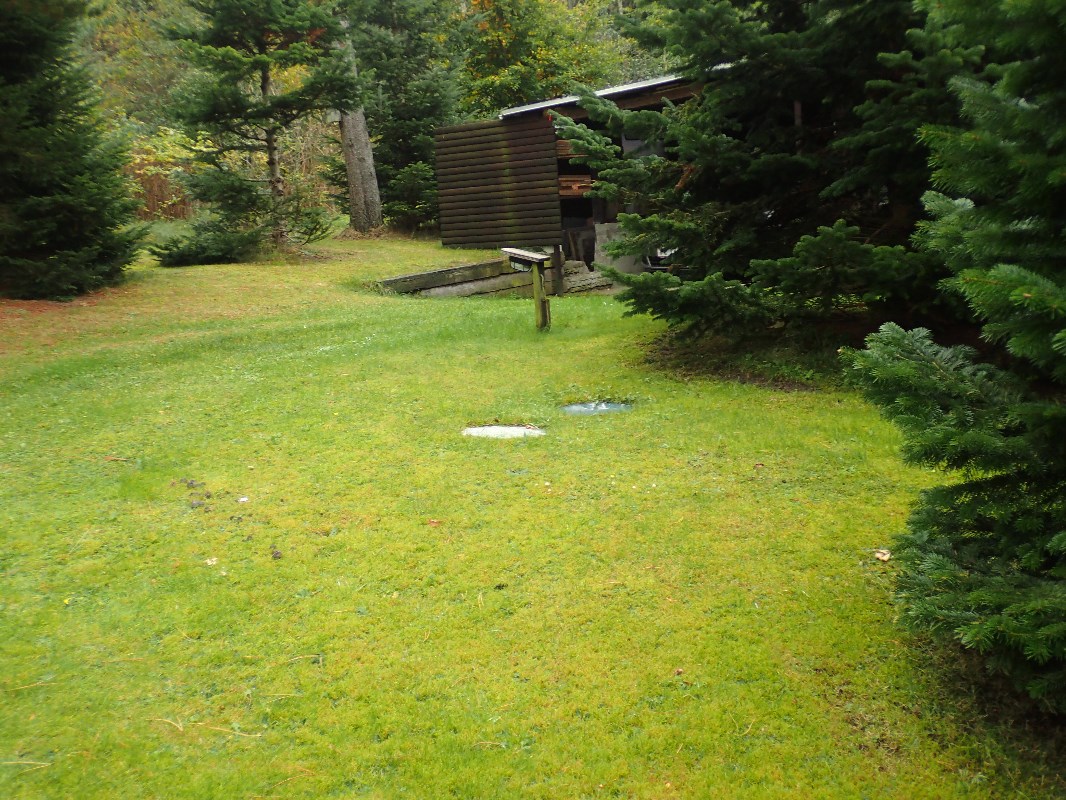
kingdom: Fungi
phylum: Basidiomycota
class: Agaricomycetes
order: Agaricales
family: Tricholomataceae
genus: Tricholoma
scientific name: Tricholoma terreum
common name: jordfarvet ridderhat
